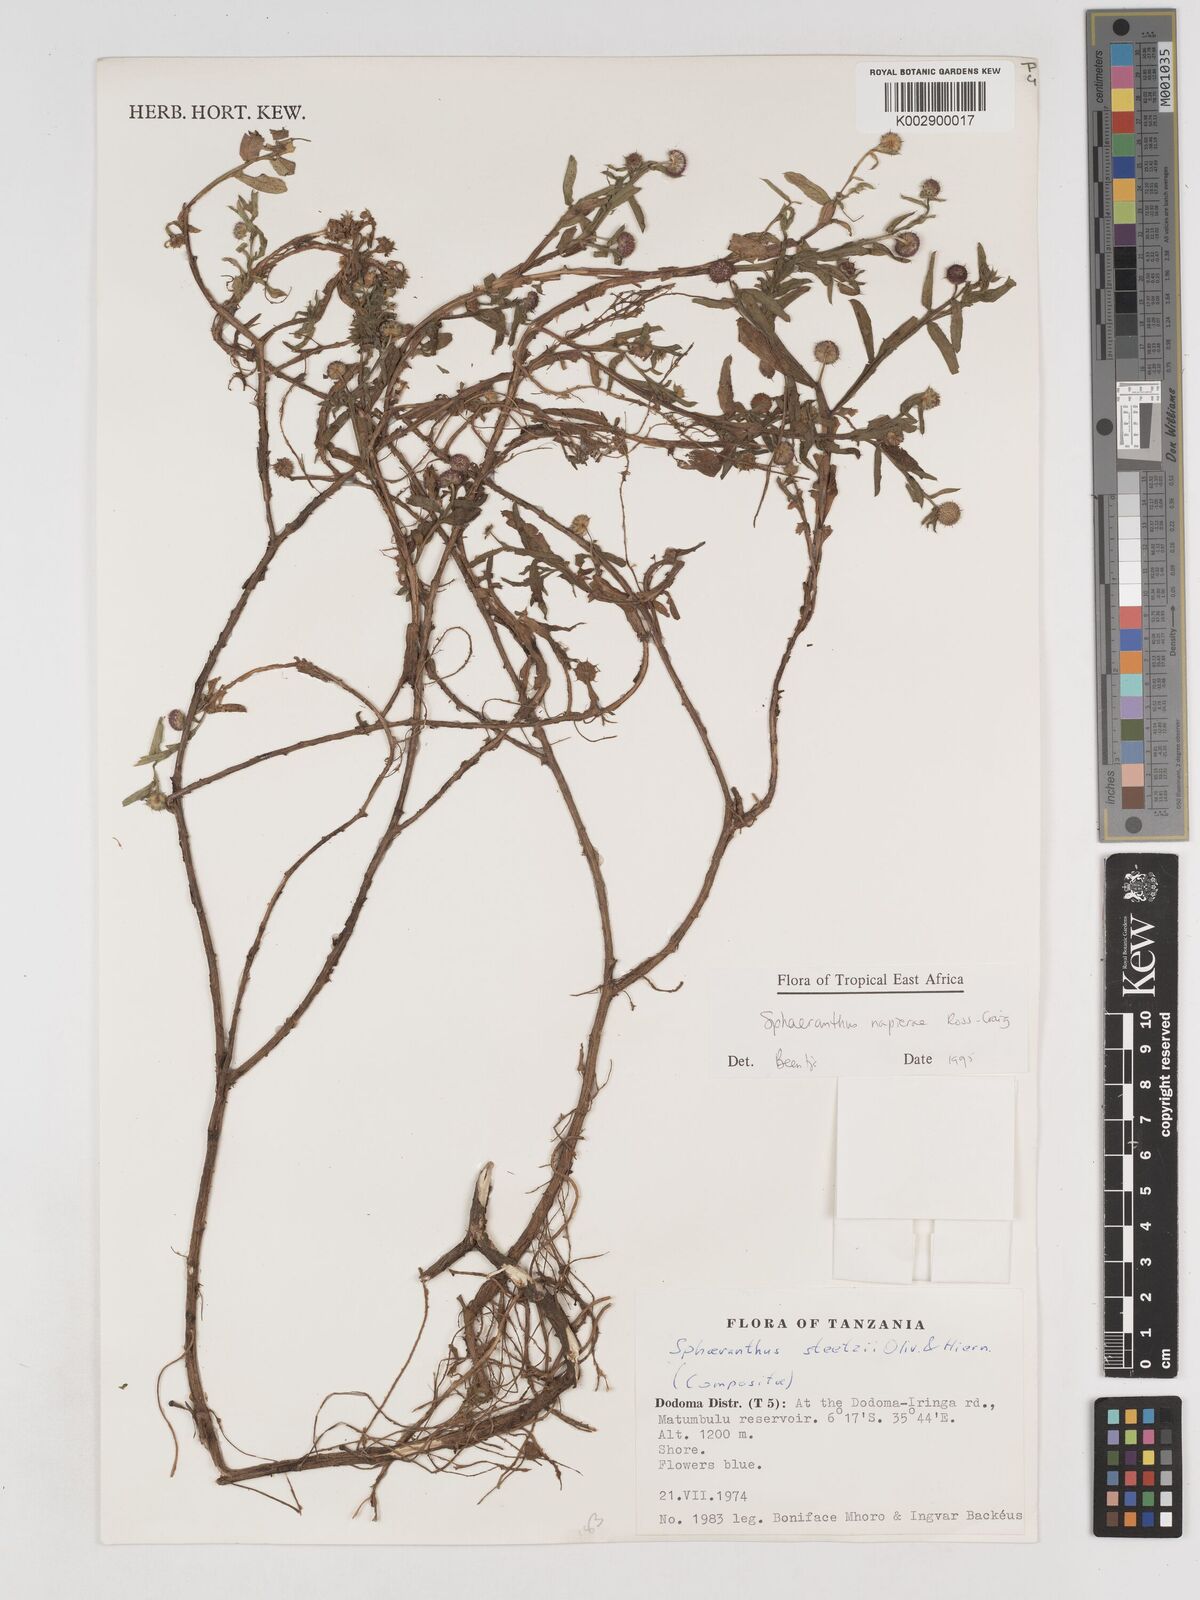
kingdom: Plantae
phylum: Tracheophyta
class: Magnoliopsida
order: Asterales
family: Asteraceae
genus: Sphaeranthus
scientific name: Sphaeranthus suaveolens
